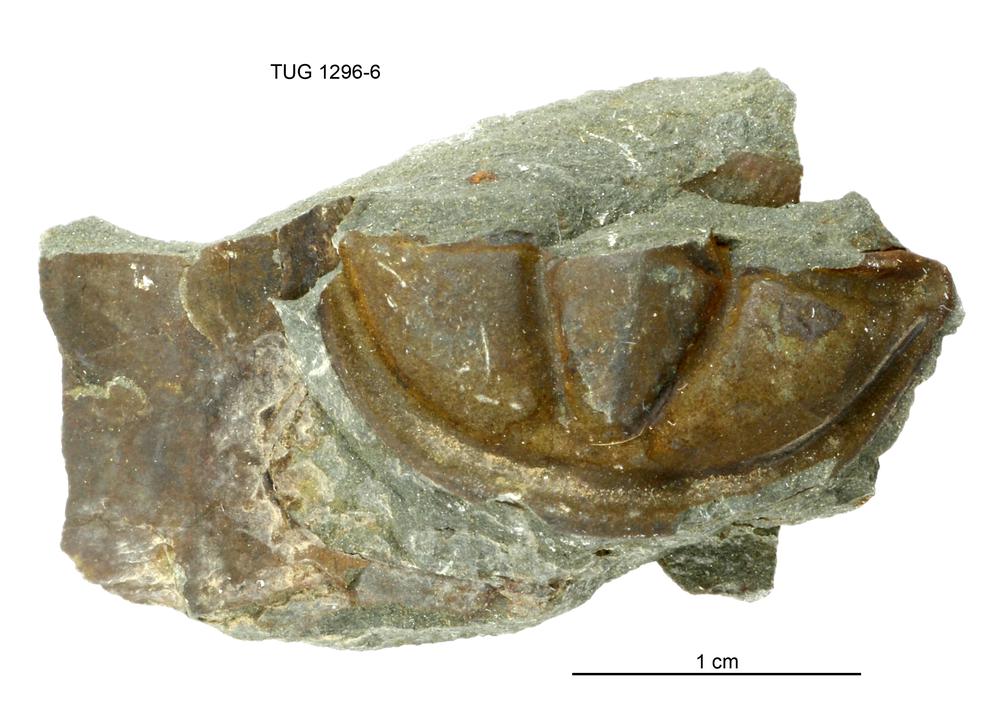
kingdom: Animalia
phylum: Arthropoda
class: Trilobita
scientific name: Trilobita
